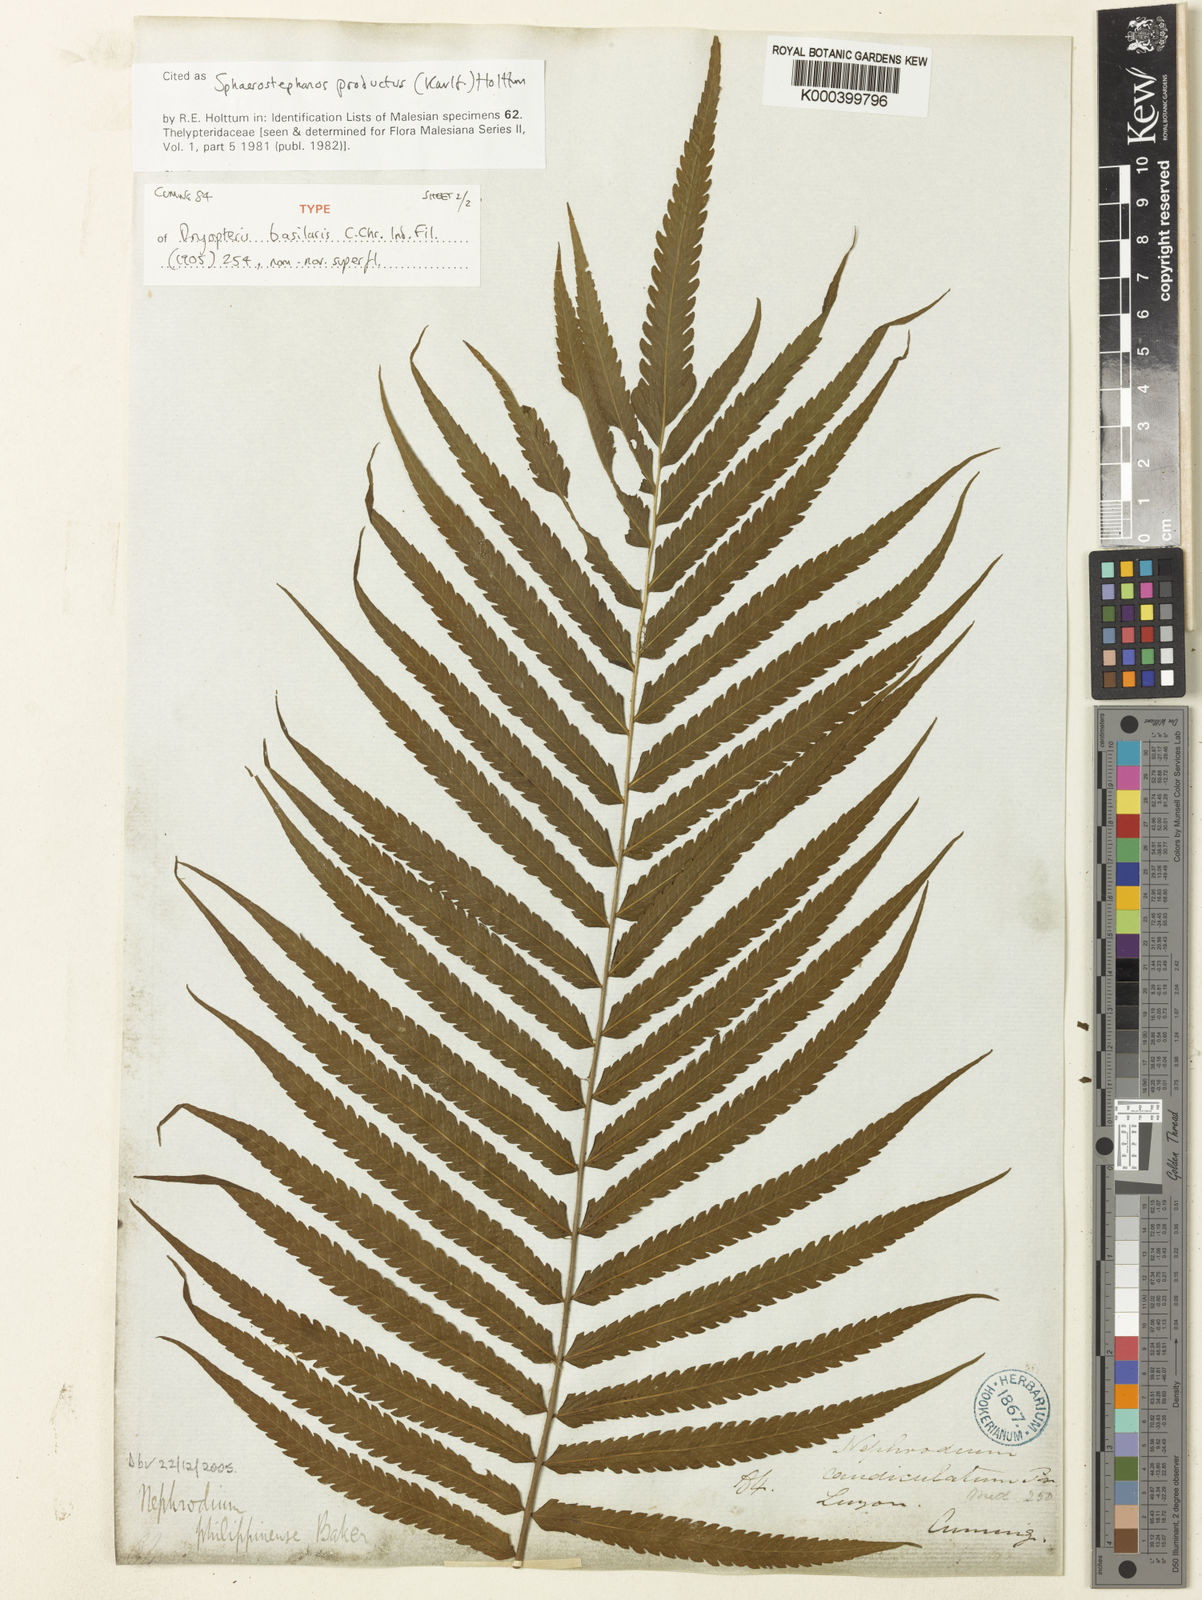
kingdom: Plantae
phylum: Tracheophyta
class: Polypodiopsida
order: Polypodiales
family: Thelypteridaceae
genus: Sphaerostephanos
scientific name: Sphaerostephanos productus
